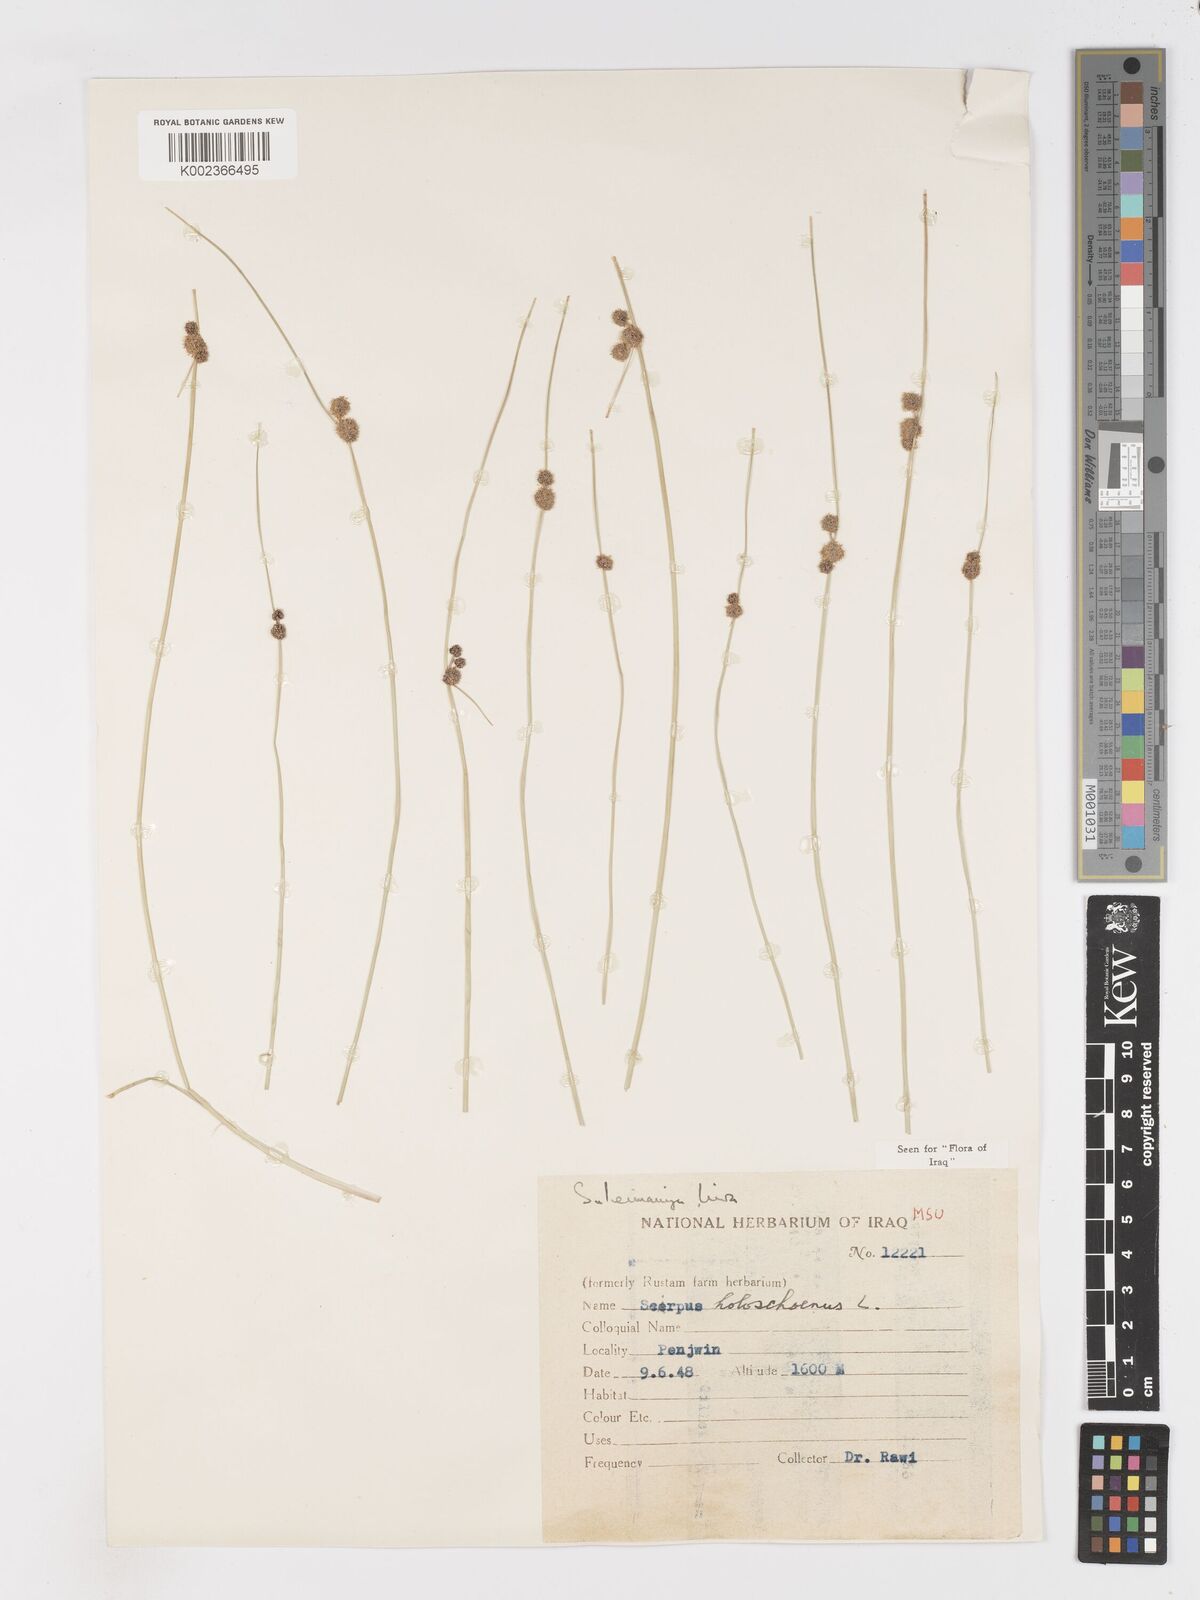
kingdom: Plantae
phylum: Tracheophyta
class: Liliopsida
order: Poales
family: Cyperaceae
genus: Scirpoides
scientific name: Scirpoides holoschoenus
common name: Round-headed club-rush
